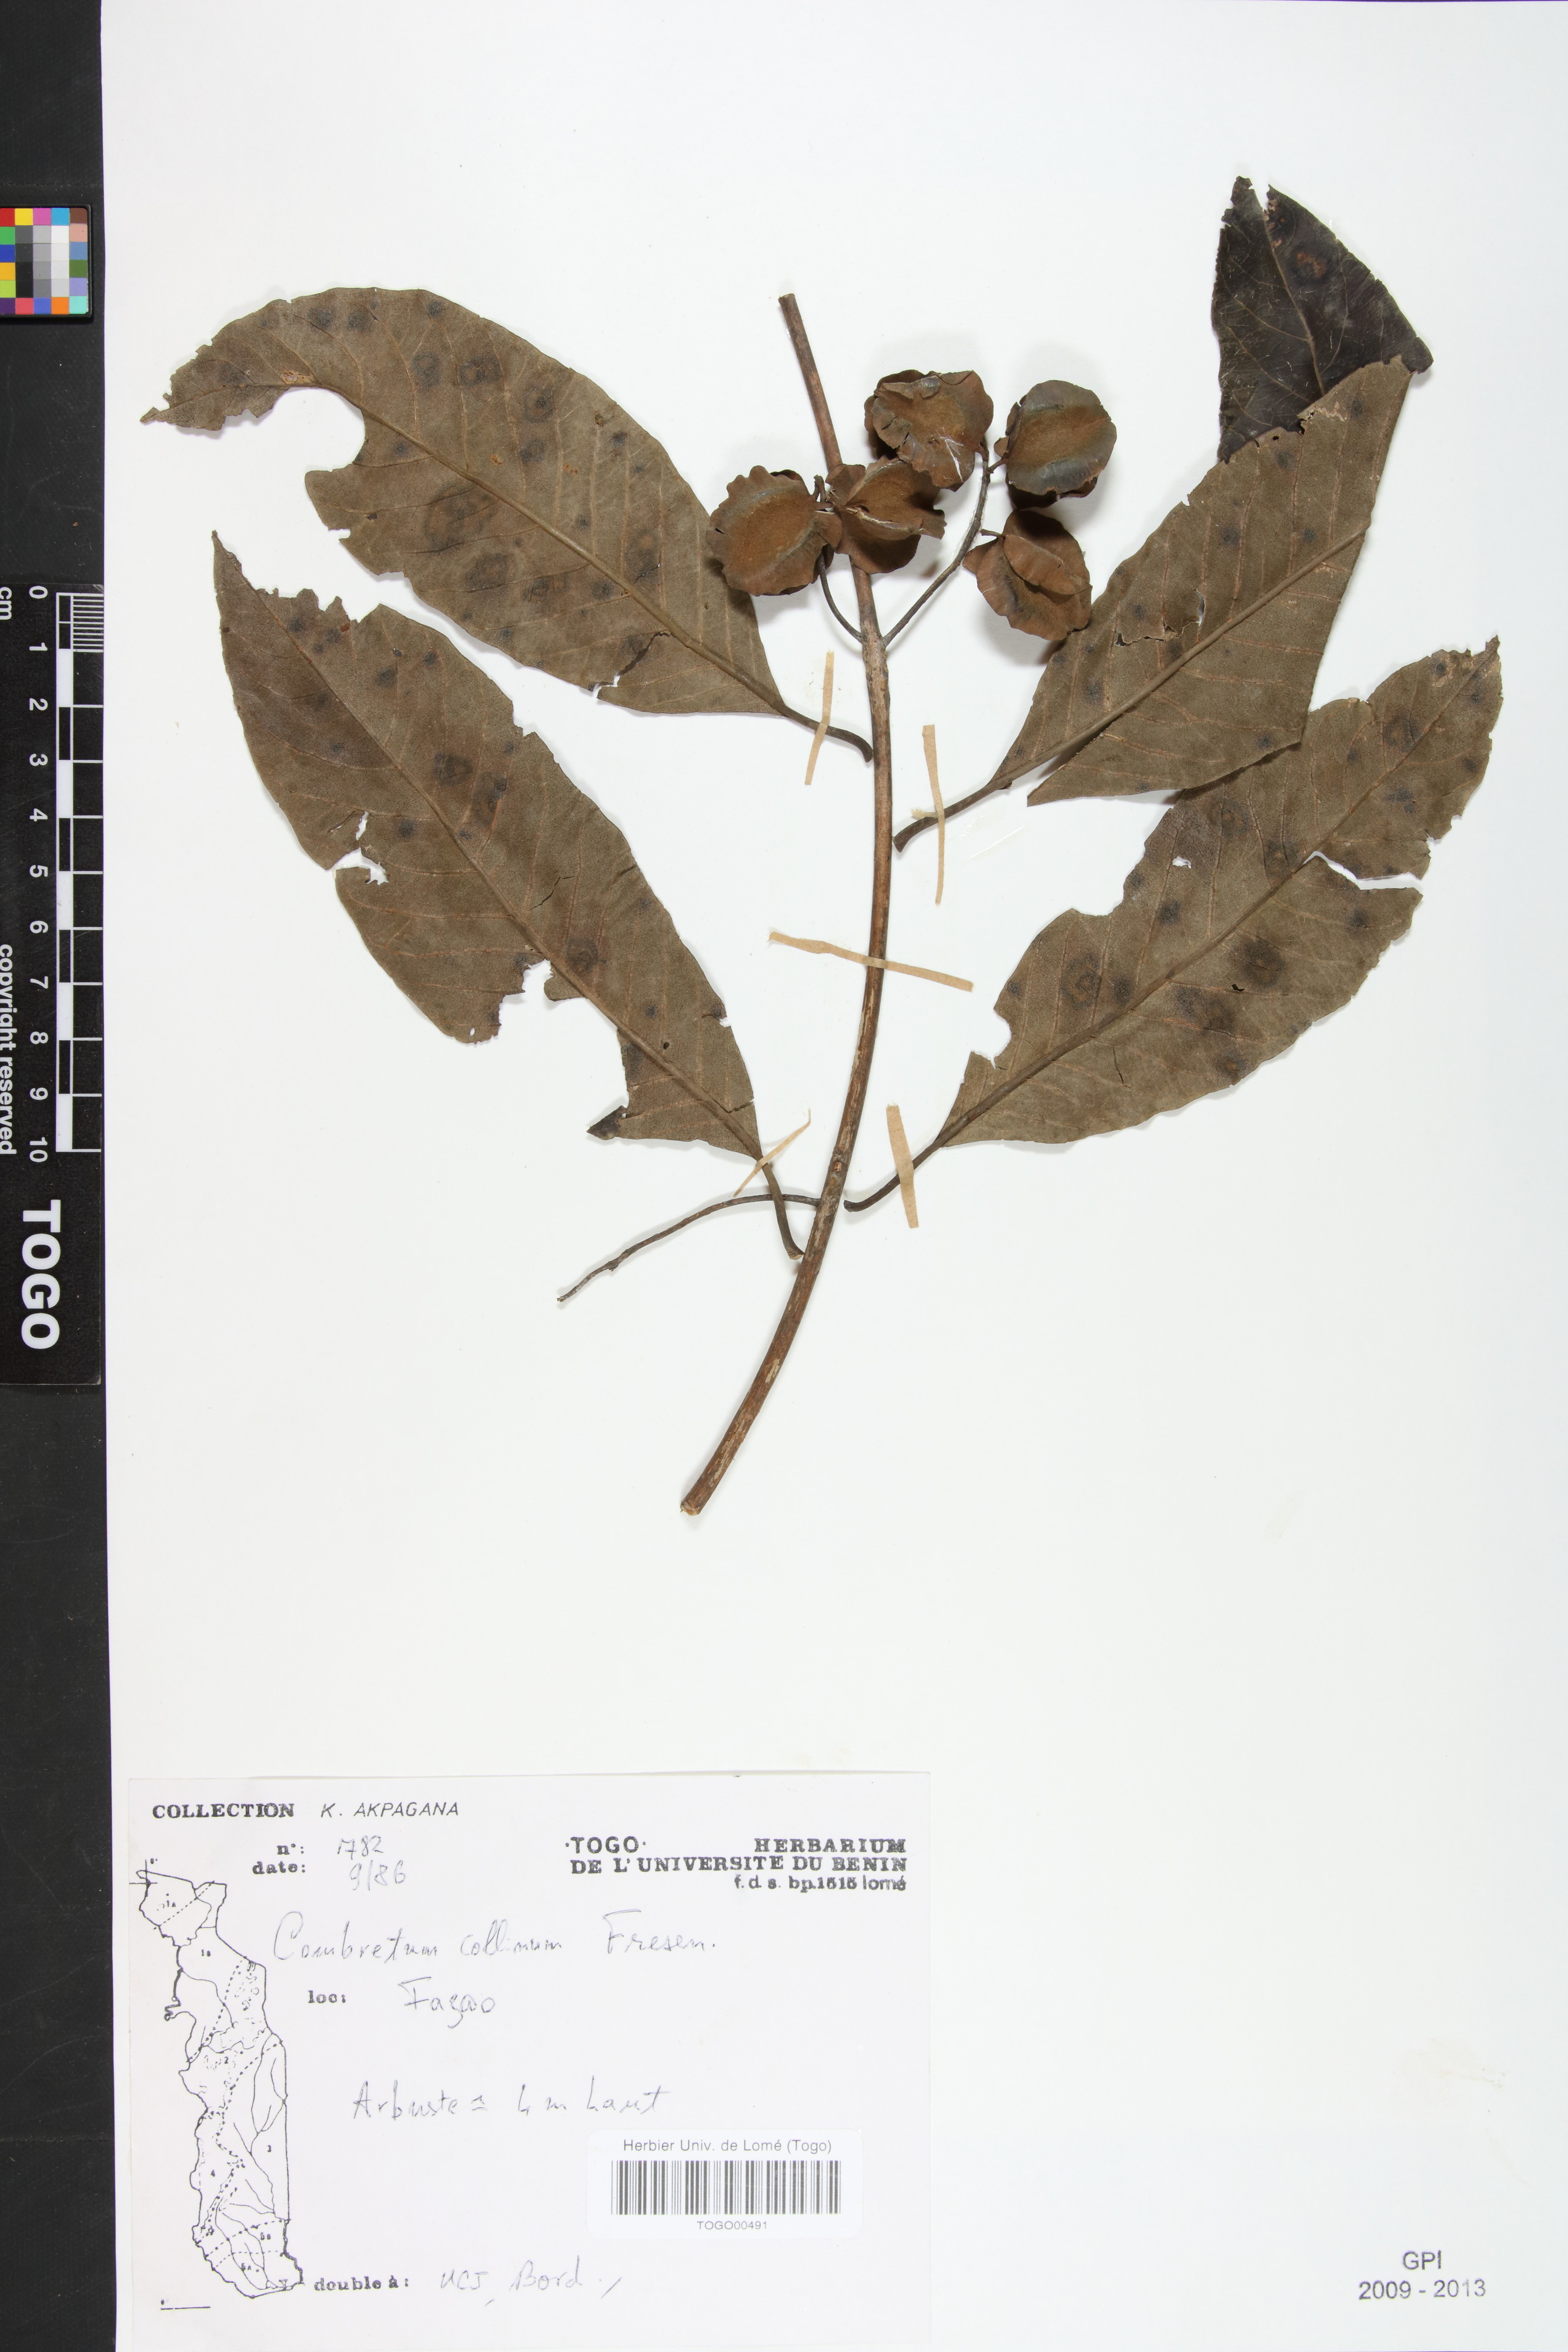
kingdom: Plantae
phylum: Tracheophyta
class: Magnoliopsida
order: Myrtales
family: Combretaceae
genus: Combretum
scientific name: Combretum collinum
